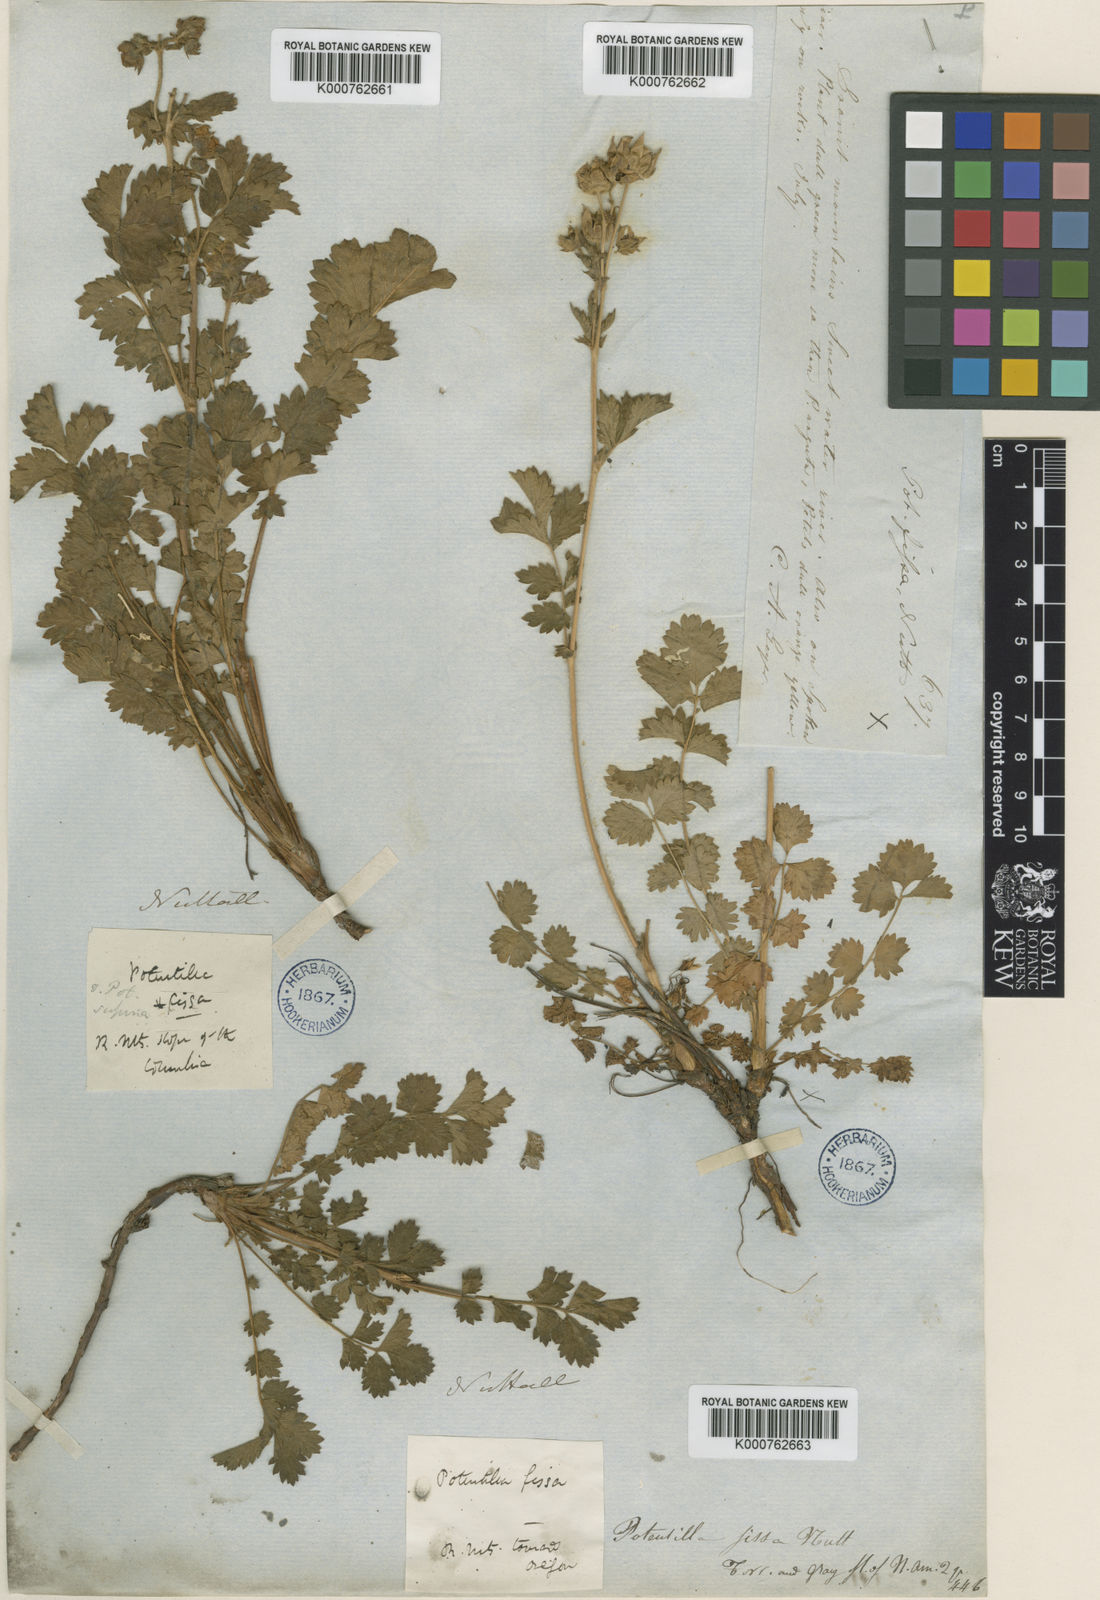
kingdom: Plantae
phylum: Tracheophyta
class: Magnoliopsida
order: Rosales
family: Rosaceae
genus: Drymocallis
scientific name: Drymocallis fissa
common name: Big-flowered cinquefoil
